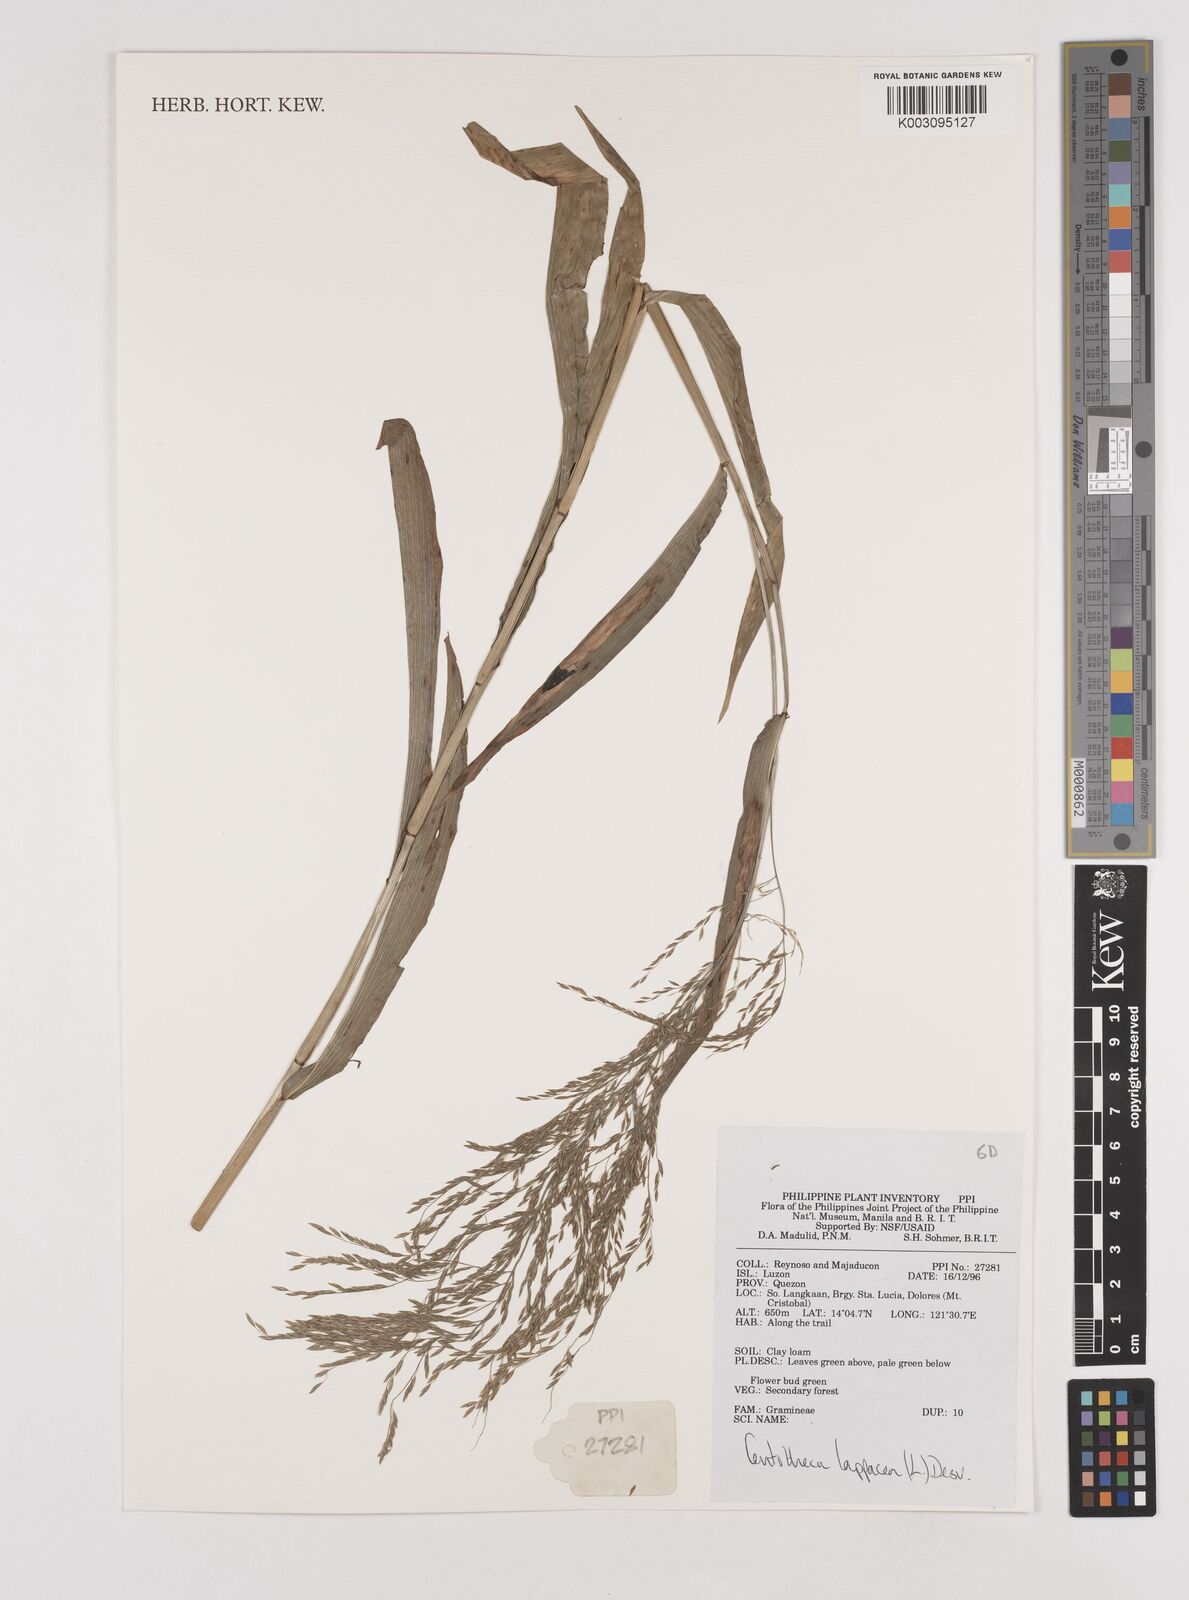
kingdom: Plantae
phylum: Tracheophyta
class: Liliopsida
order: Poales
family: Poaceae
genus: Centotheca
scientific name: Centotheca lappacea
